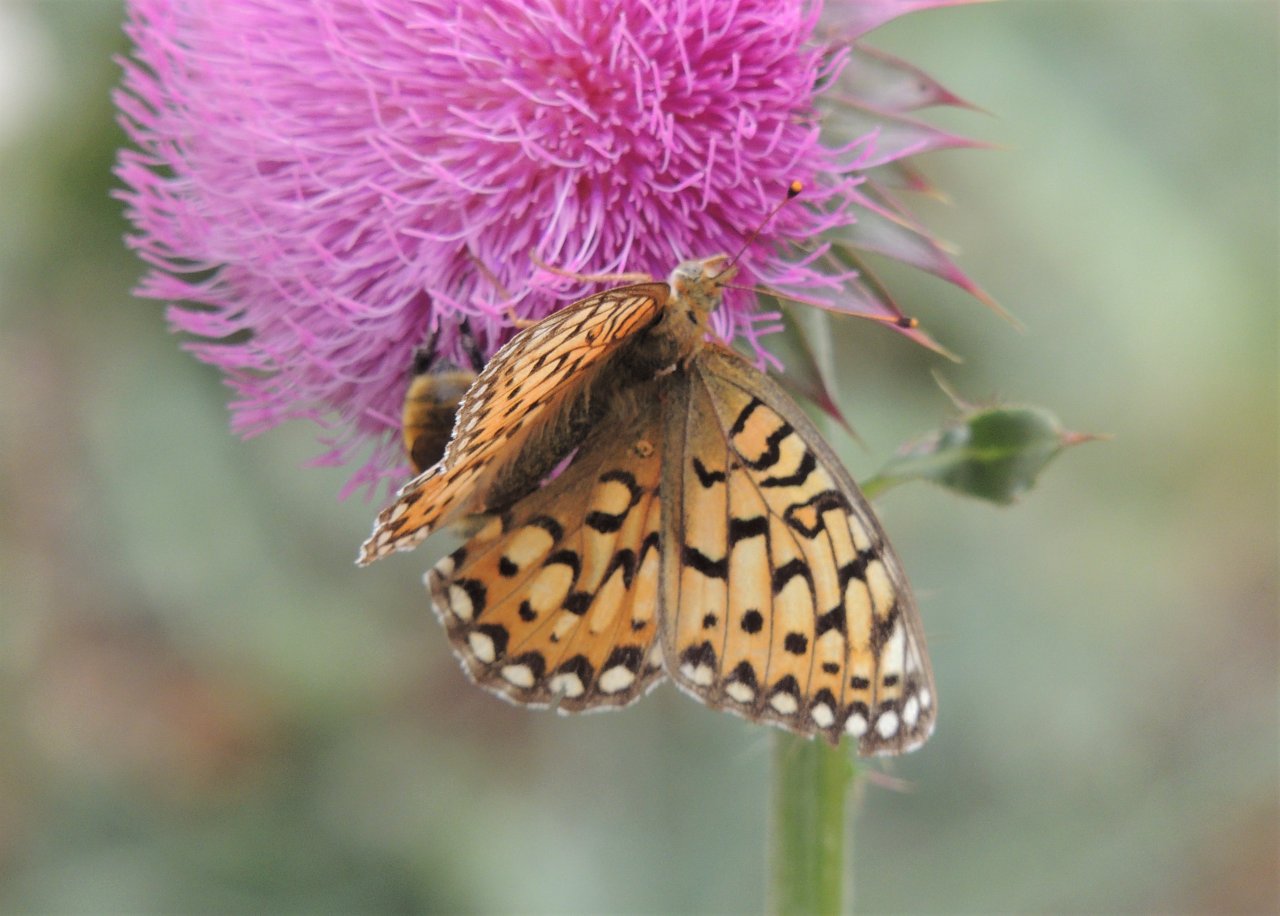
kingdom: Animalia
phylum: Arthropoda
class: Insecta
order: Lepidoptera
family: Nymphalidae
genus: Speyeria
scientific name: Speyeria mormonia
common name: Mormon Fritillary
